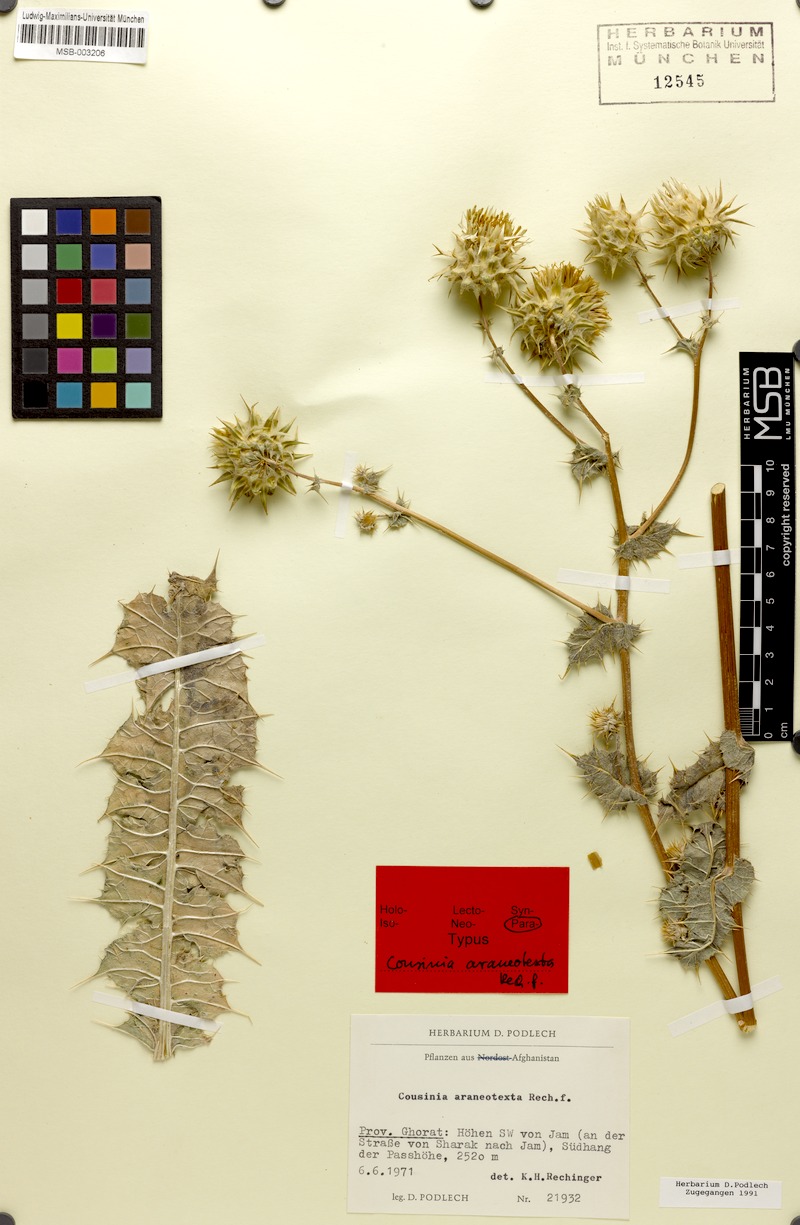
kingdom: Plantae
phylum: Tracheophyta
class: Magnoliopsida
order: Asterales
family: Asteraceae
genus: Cousinia
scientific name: Cousinia araneotexta
